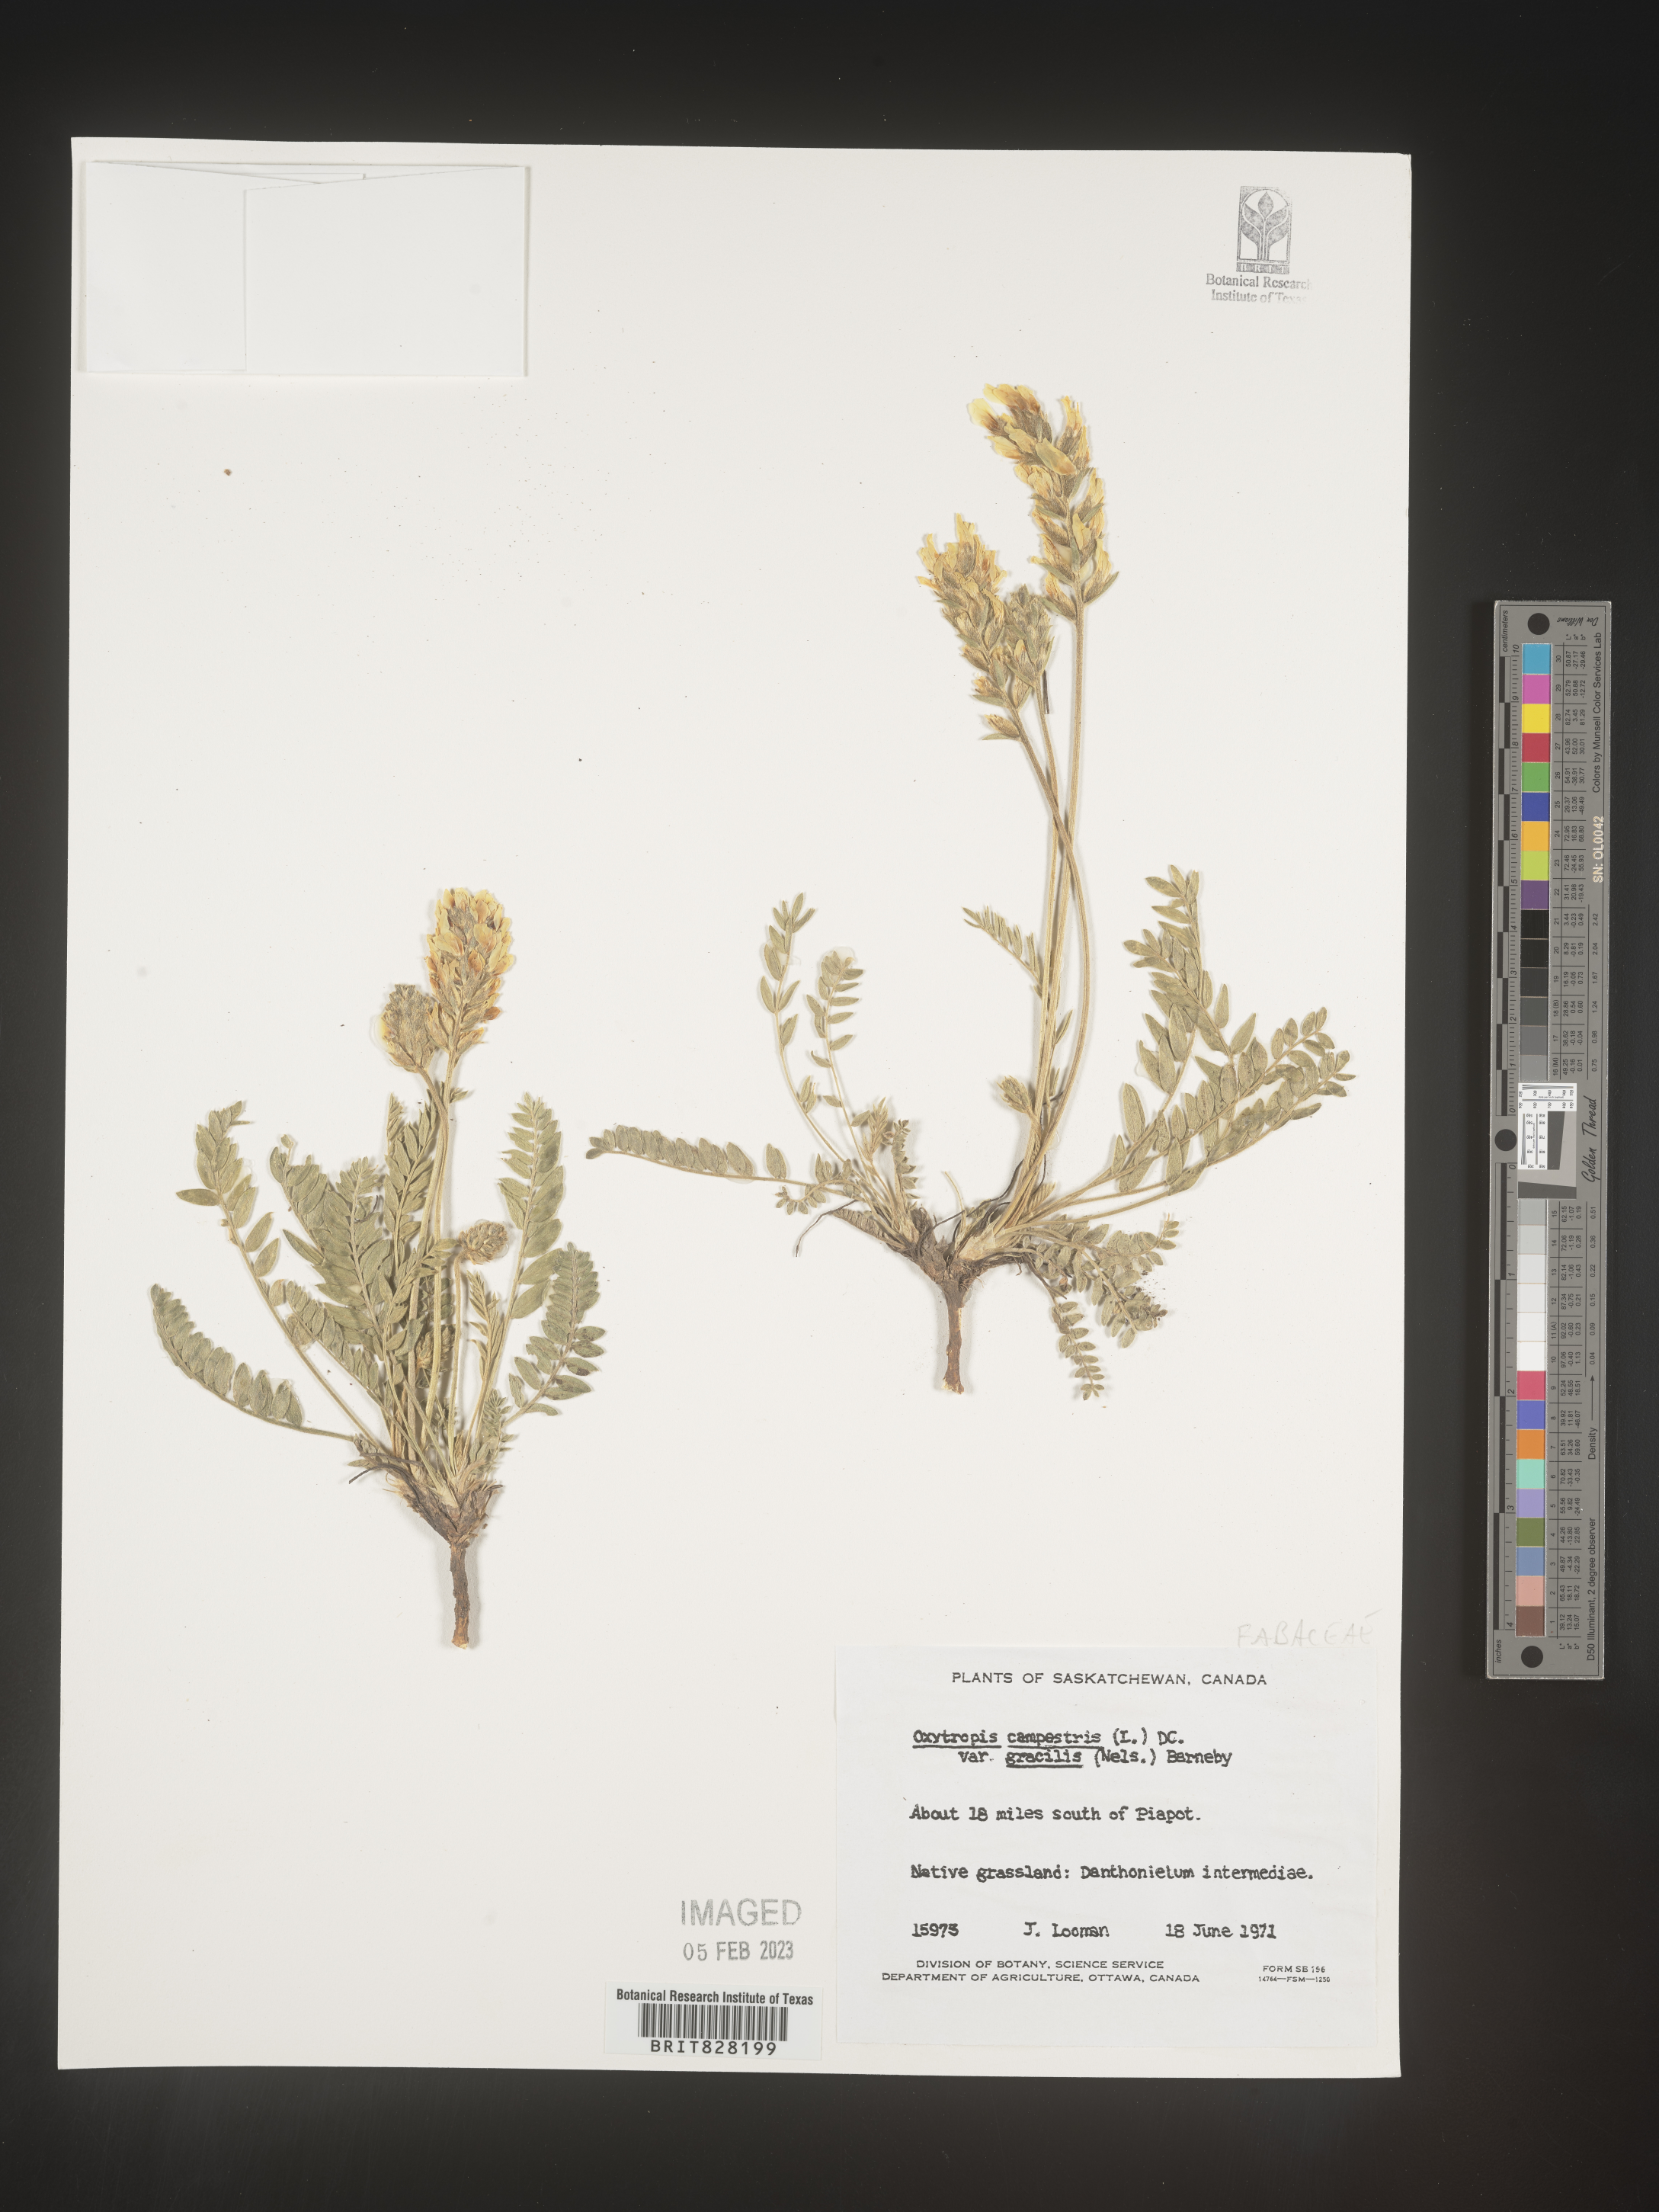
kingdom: Plantae
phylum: Tracheophyta
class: Magnoliopsida
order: Fabales
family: Fabaceae
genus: Oxytropis
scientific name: Oxytropis campestris
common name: Field locoweed
